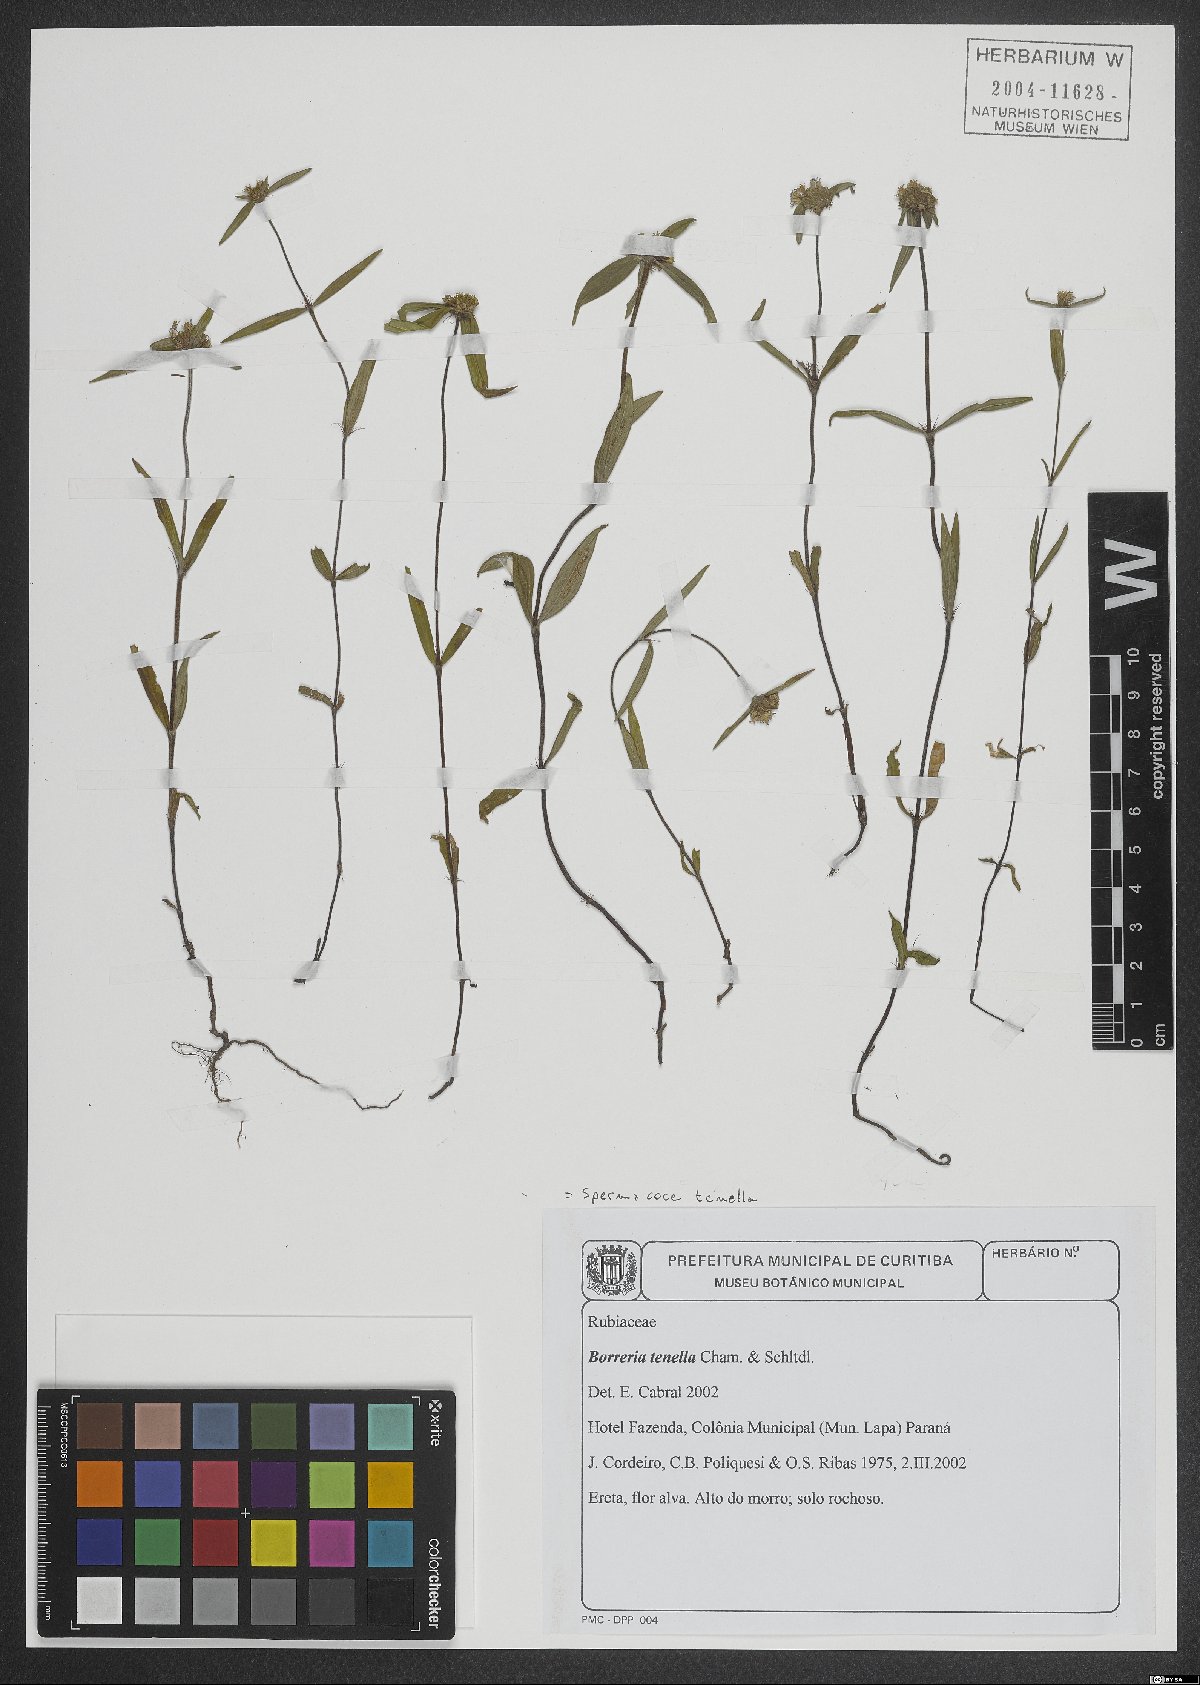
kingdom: Plantae
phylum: Tracheophyta
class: Magnoliopsida
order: Gentianales
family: Rubiaceae
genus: Spermacoce
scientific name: Spermacoce orinocensis
